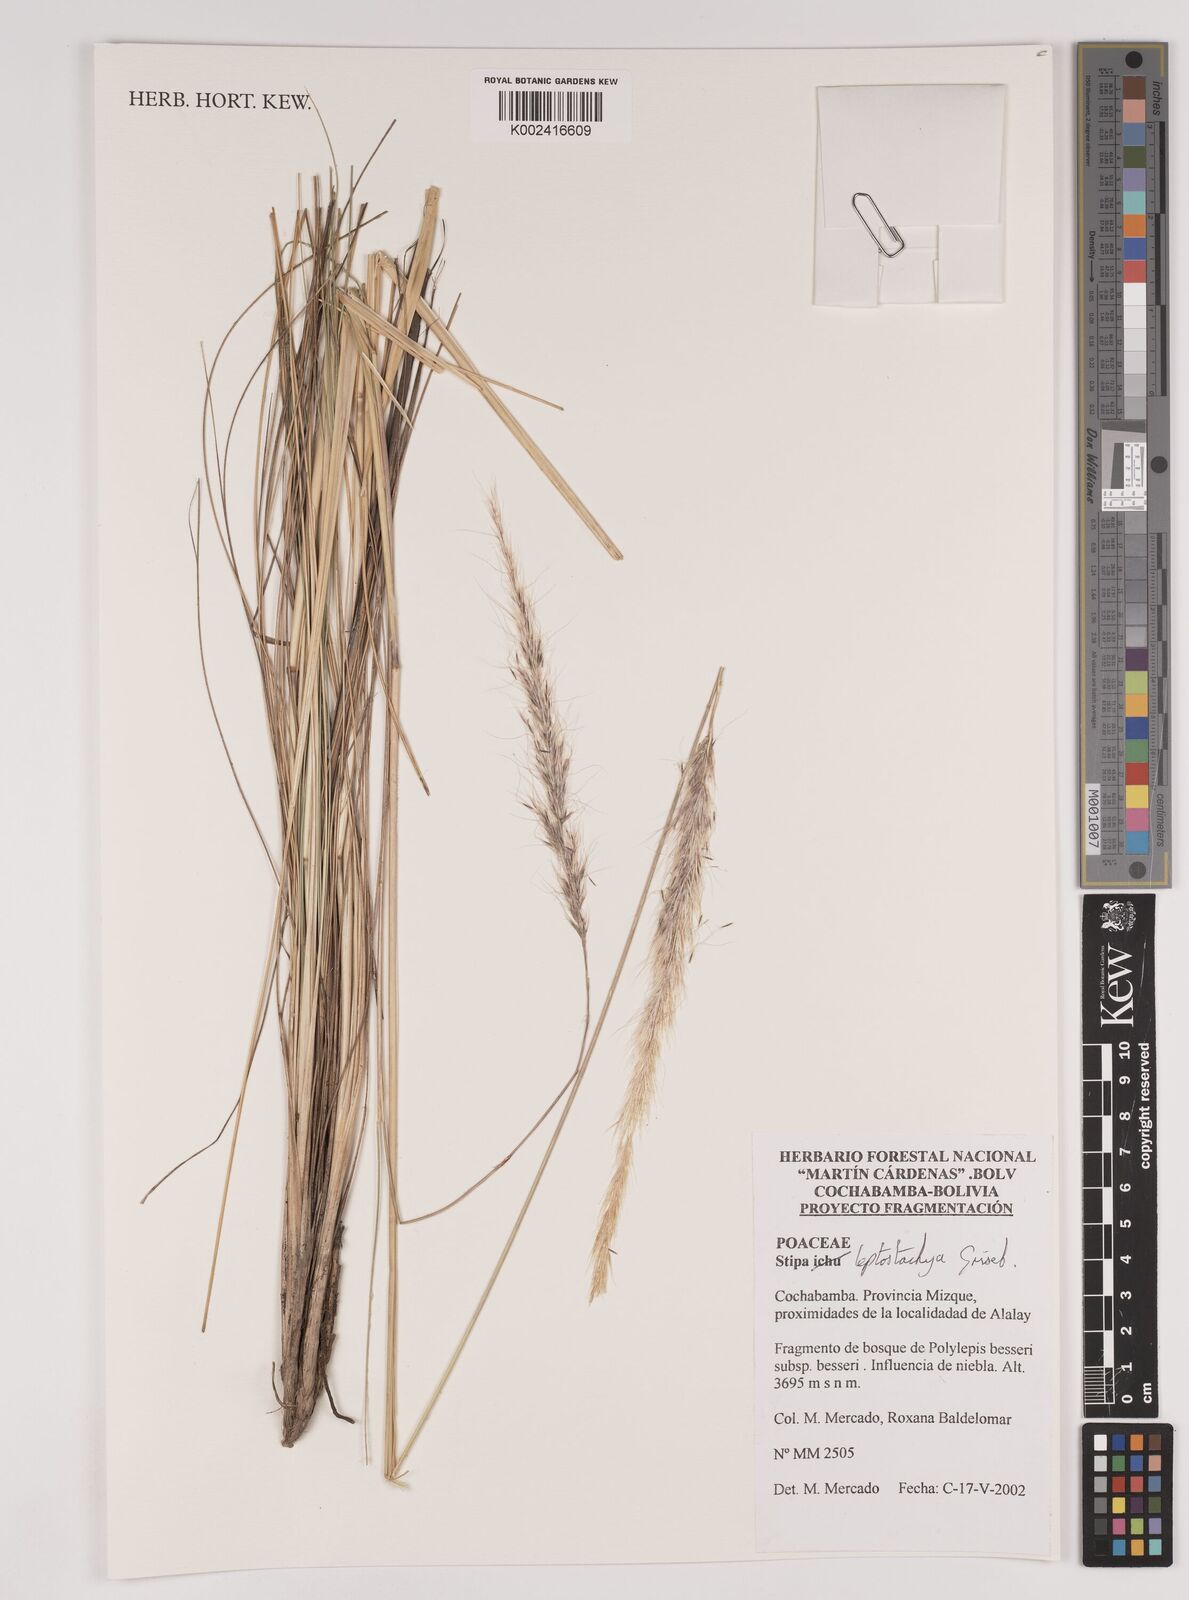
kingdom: Plantae
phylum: Tracheophyta
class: Liliopsida
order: Poales
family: Poaceae
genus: Jarava
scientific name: Jarava leptostachya
